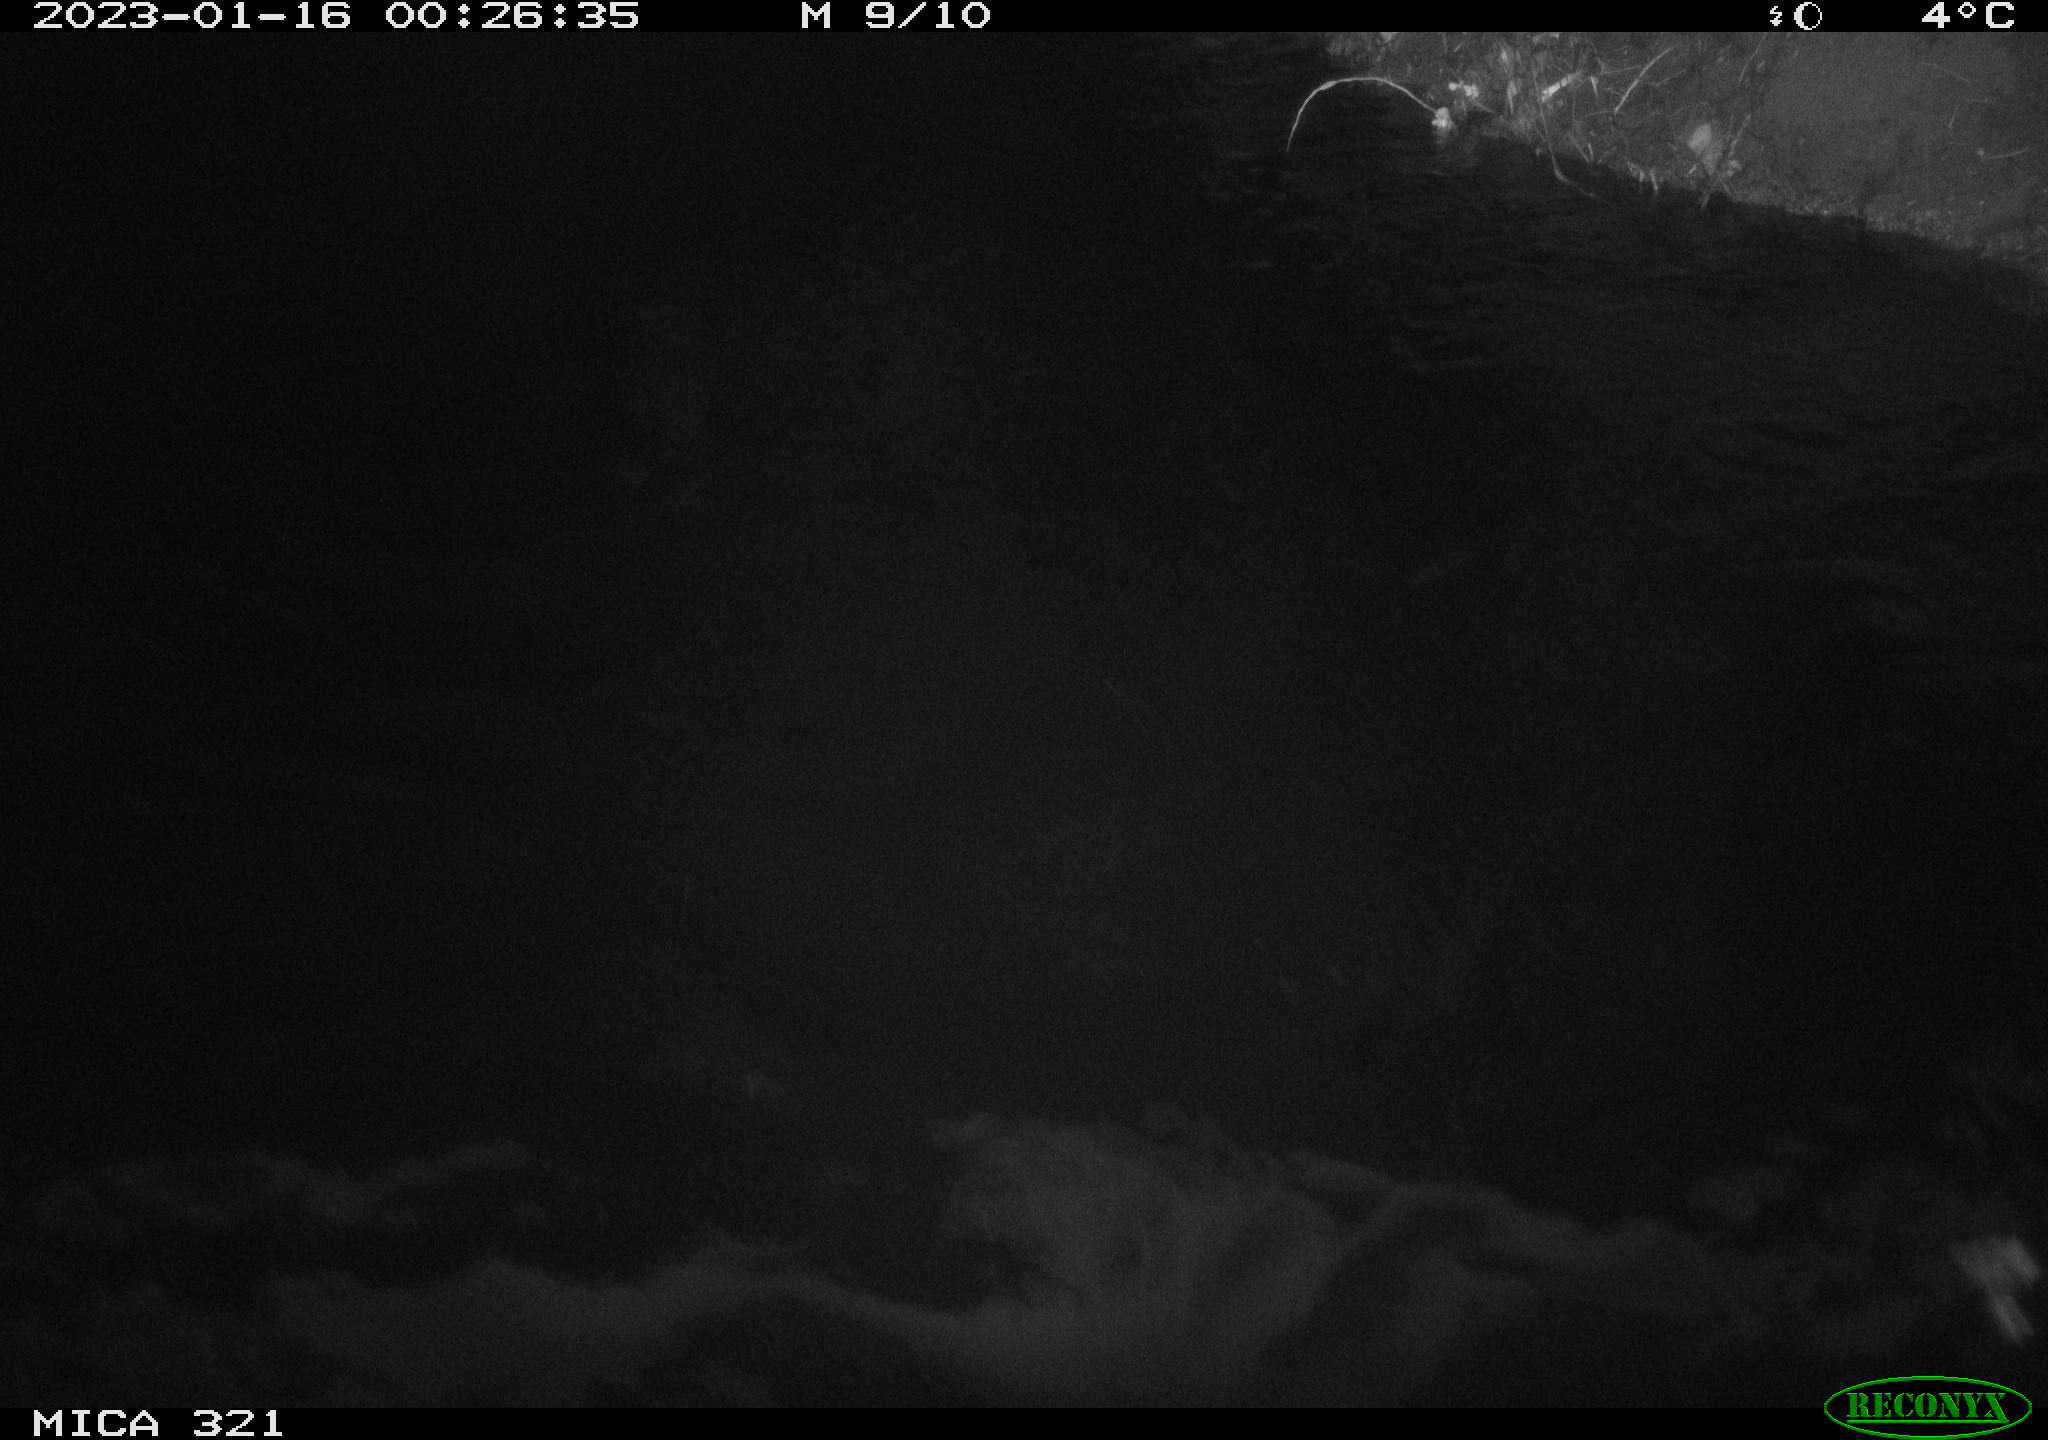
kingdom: Animalia
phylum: Chordata
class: Mammalia
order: Rodentia
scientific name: Rodentia
